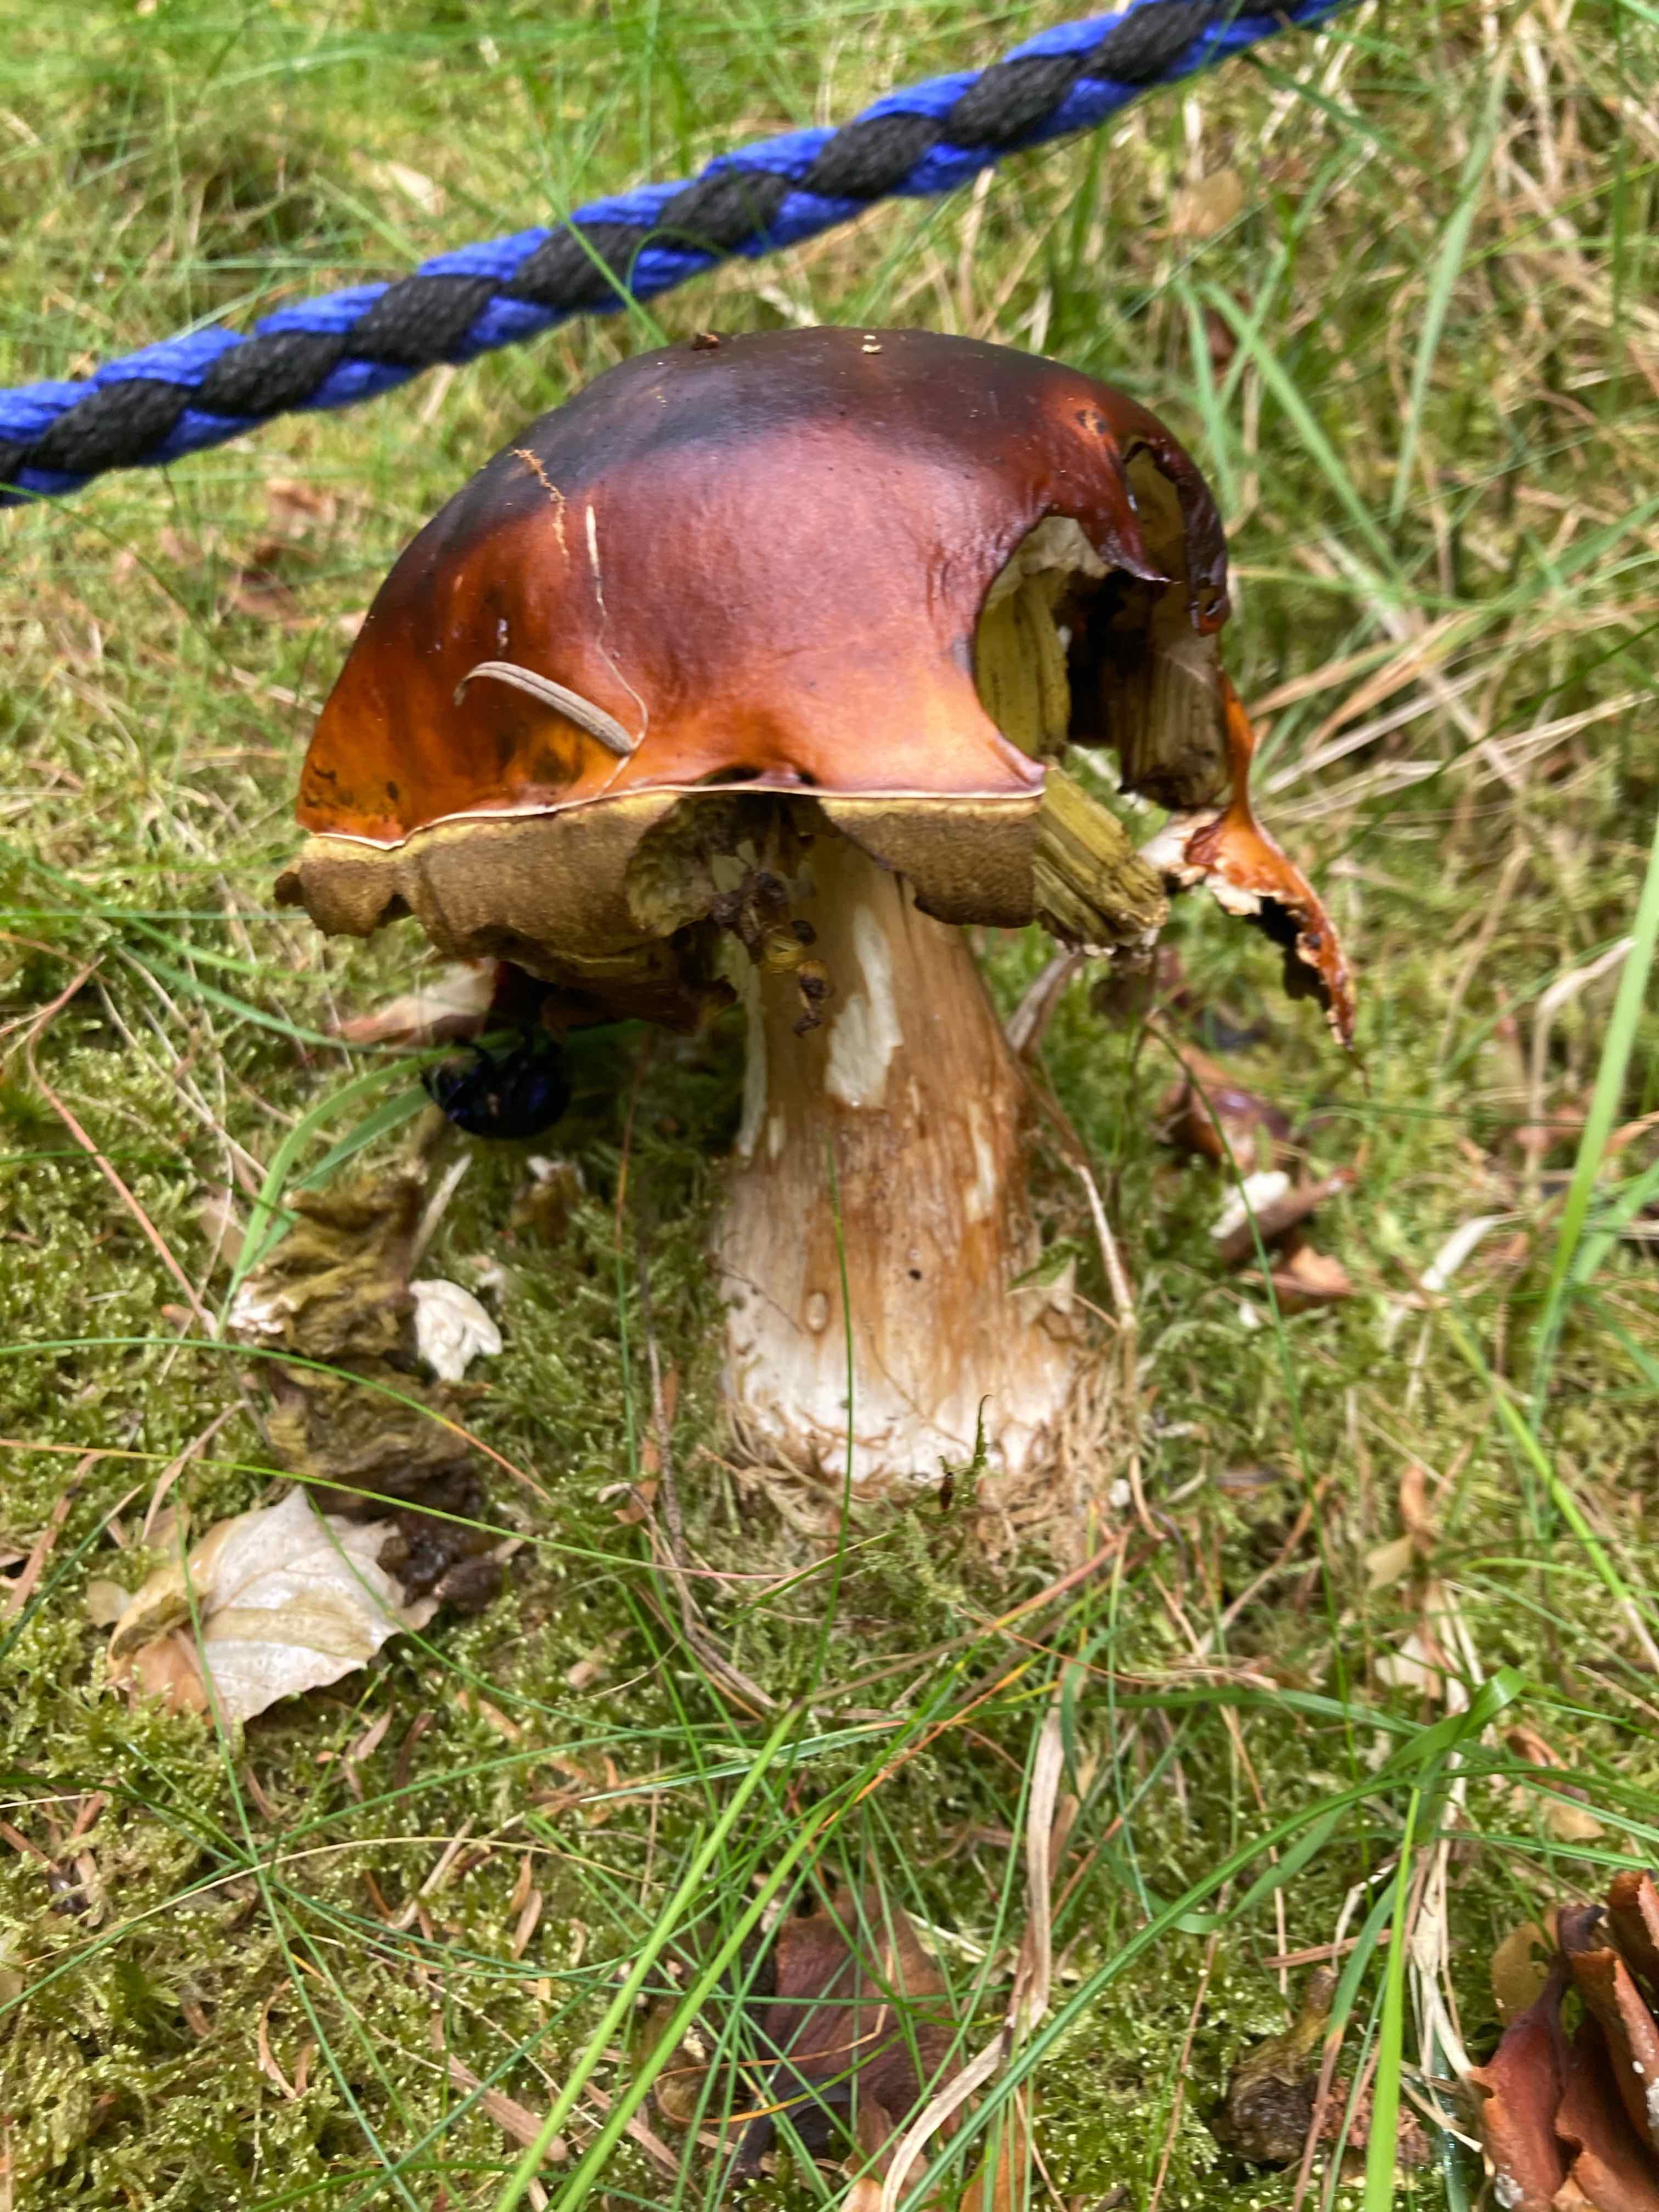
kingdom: Fungi
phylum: Basidiomycota
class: Agaricomycetes
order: Boletales
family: Boletaceae
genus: Boletus
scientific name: Boletus edulis
